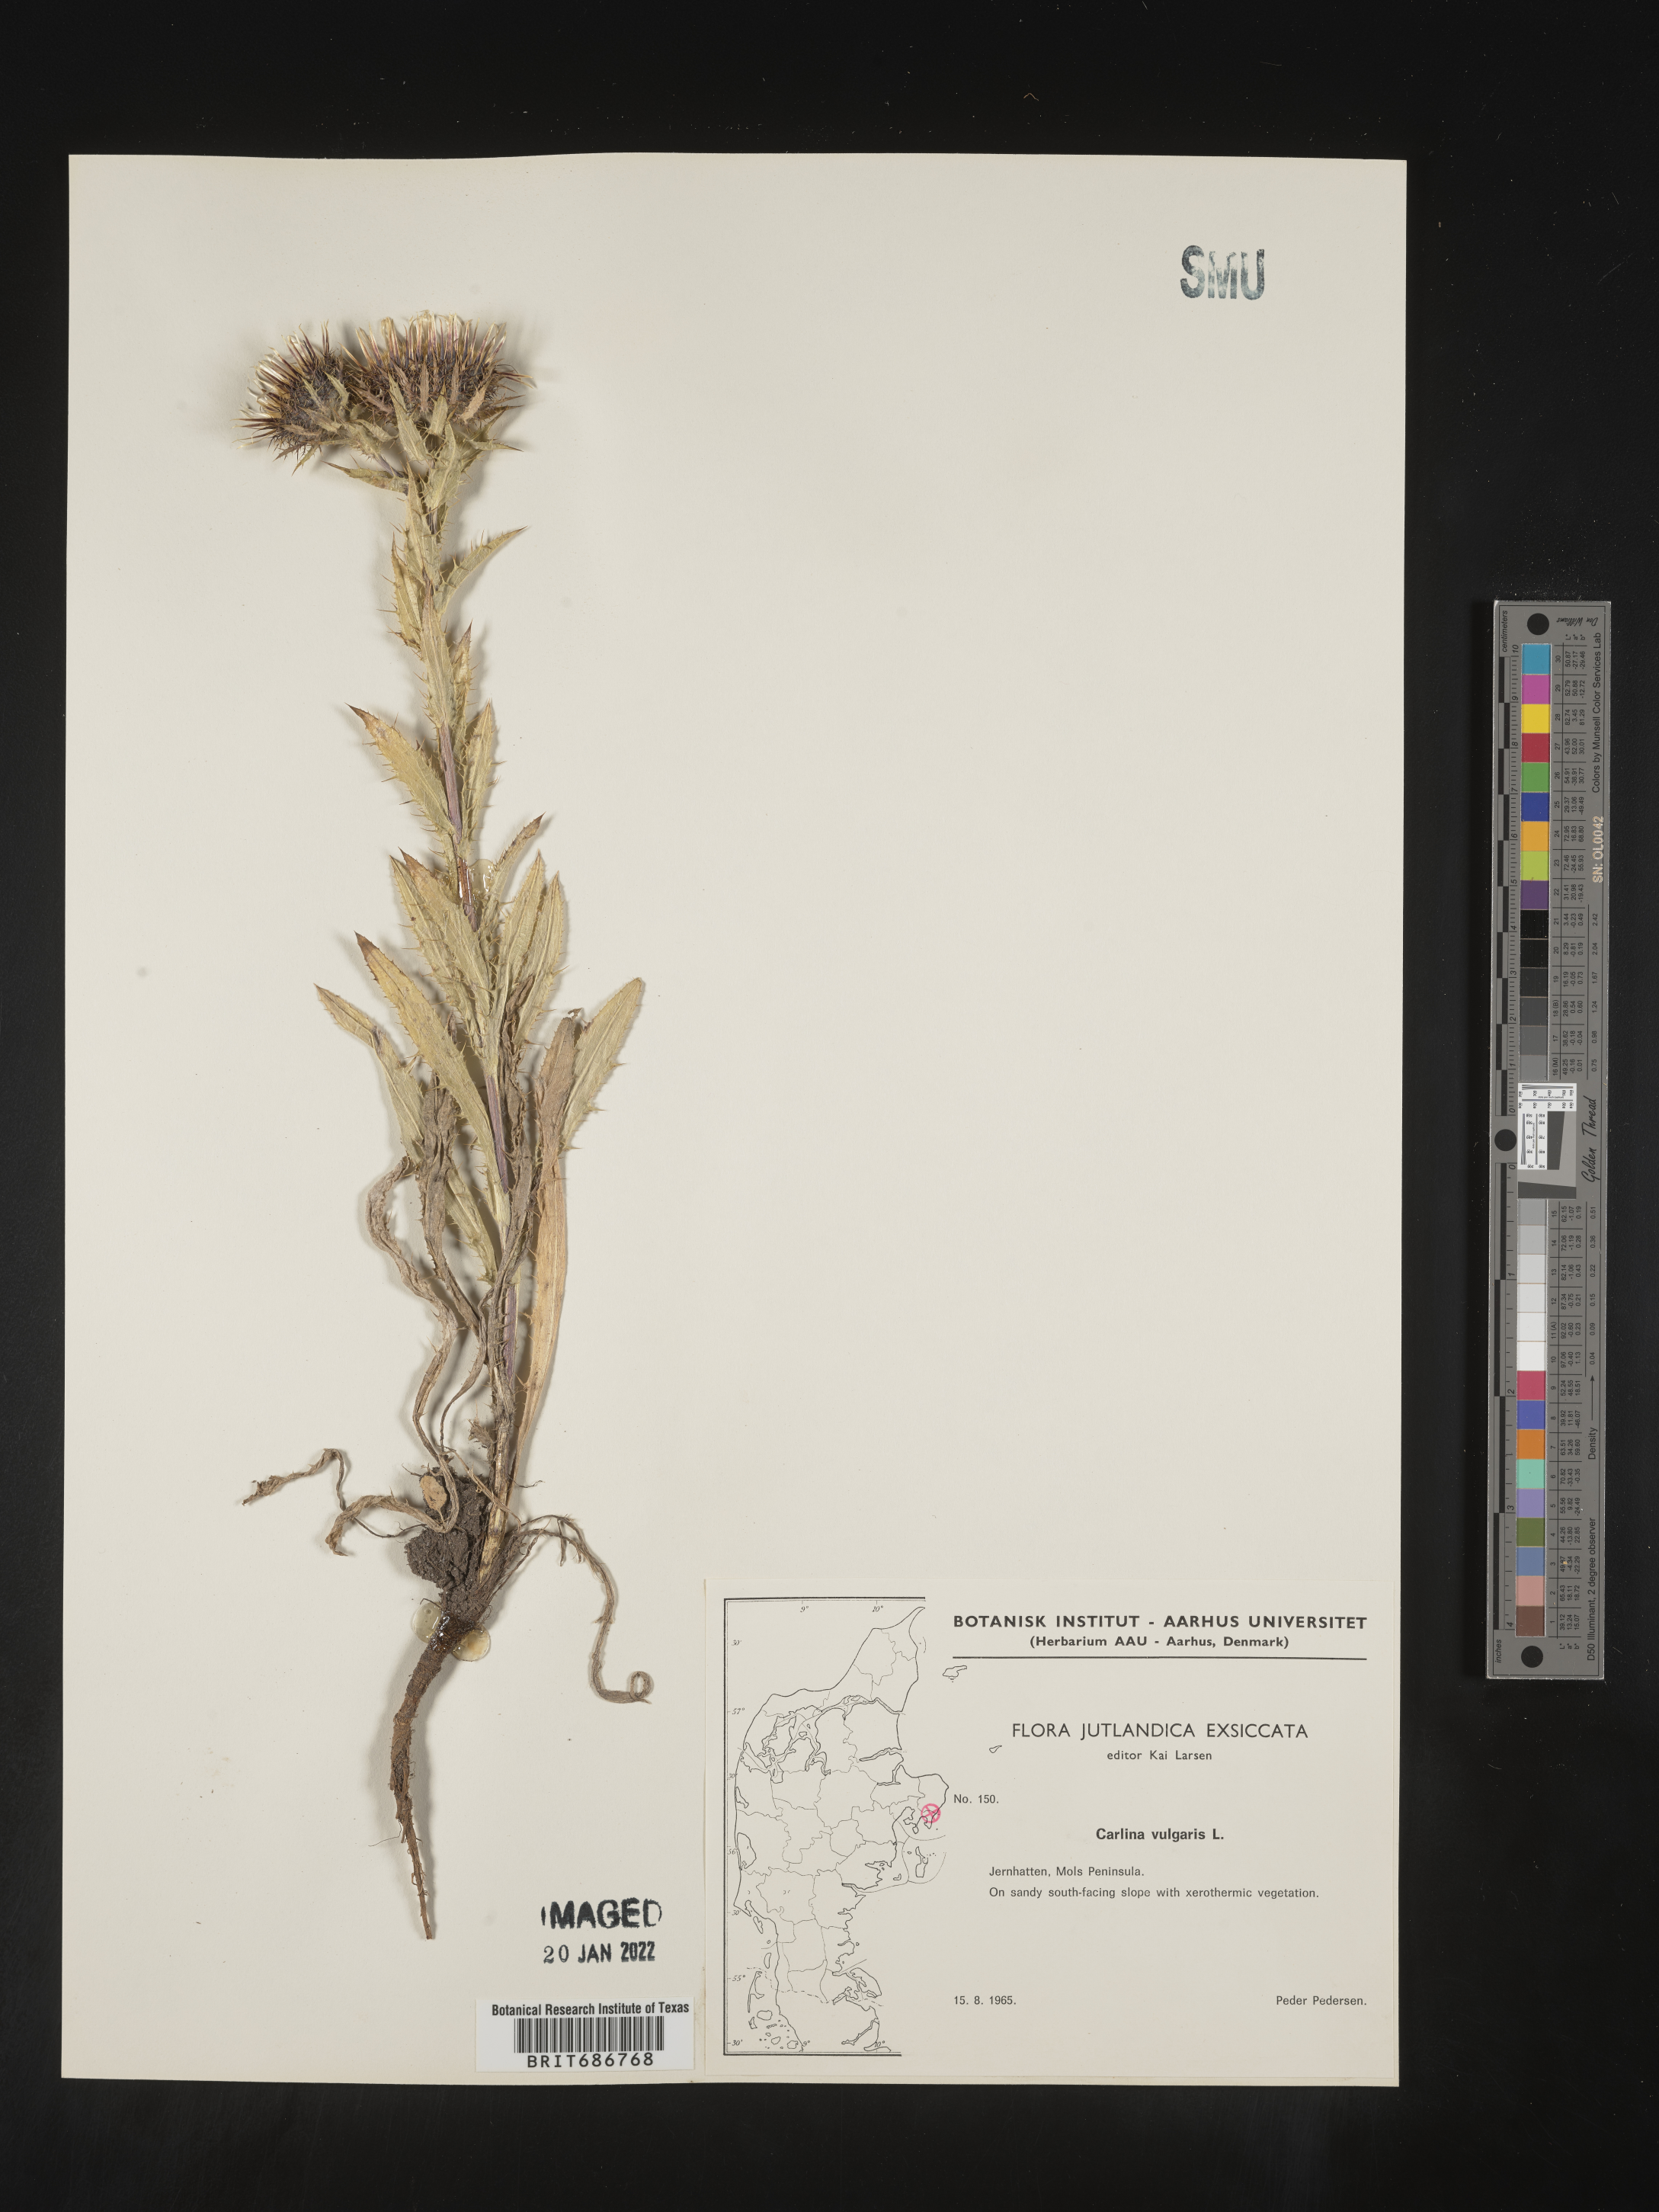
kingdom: Plantae
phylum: Tracheophyta
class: Magnoliopsida
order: Asterales
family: Asteraceae
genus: Carlina
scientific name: Carlina
